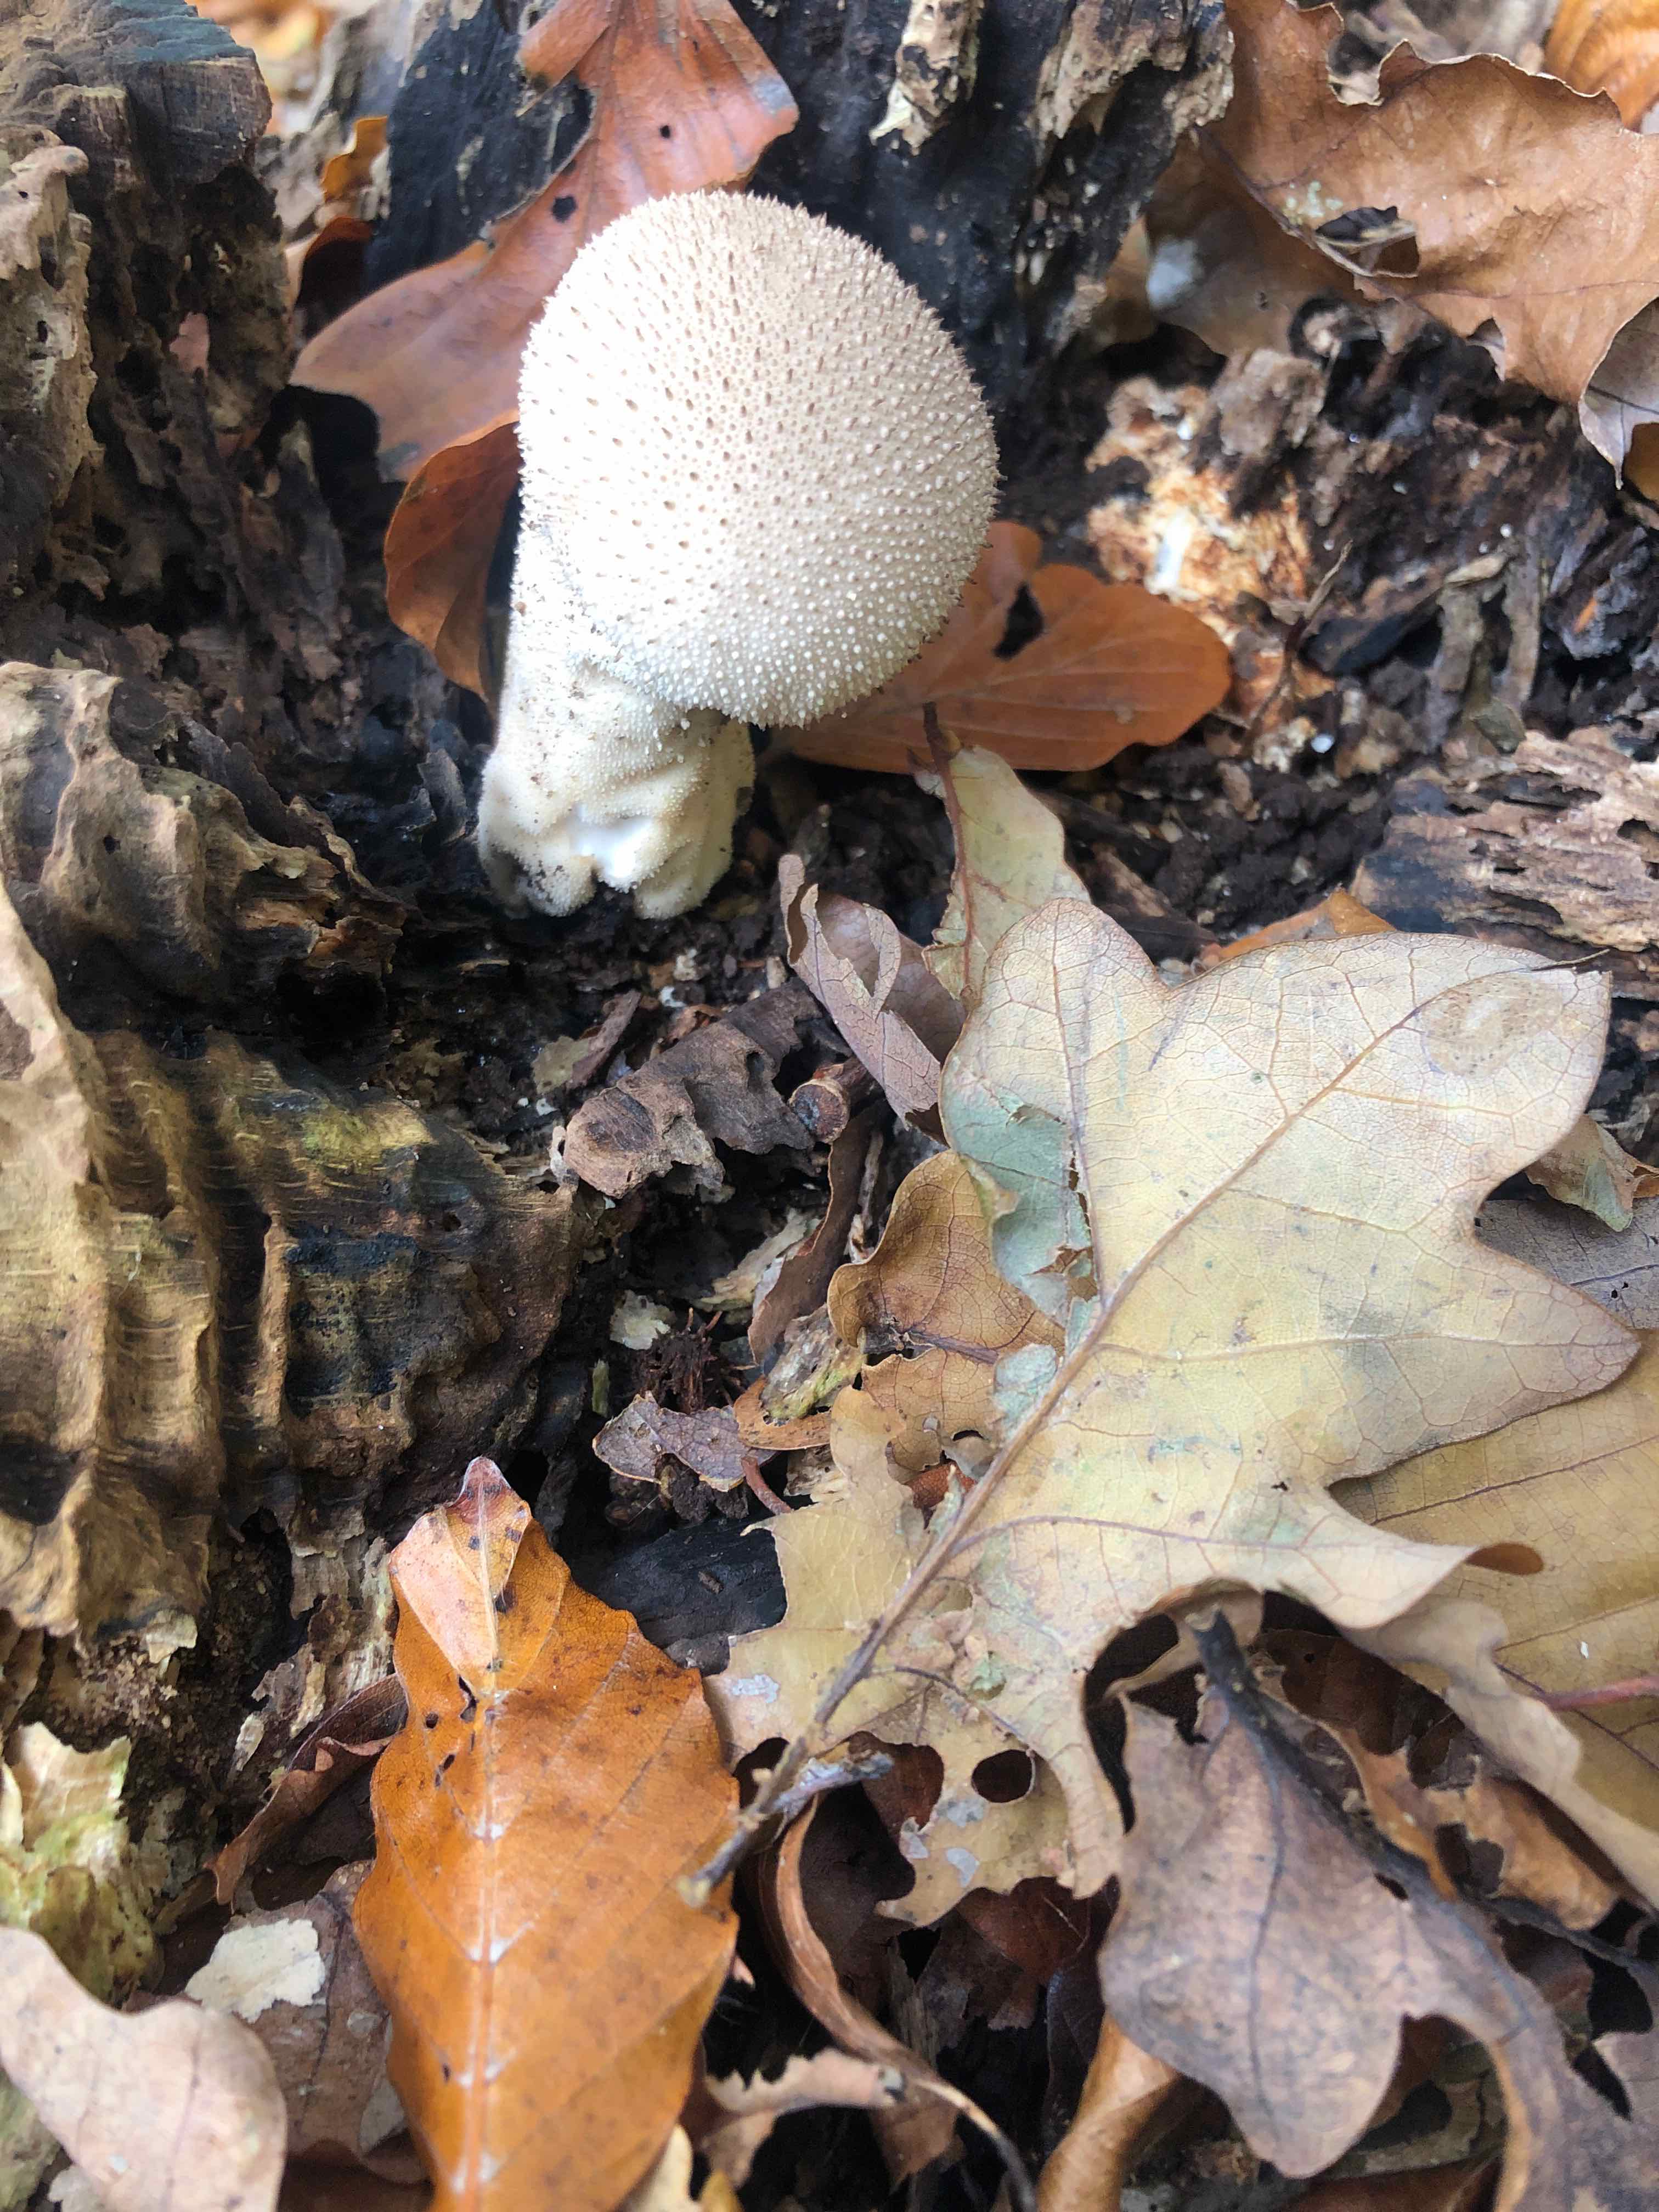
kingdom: Fungi
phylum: Basidiomycota
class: Agaricomycetes
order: Agaricales
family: Lycoperdaceae
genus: Lycoperdon
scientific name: Lycoperdon perlatum
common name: krystal-støvbold
